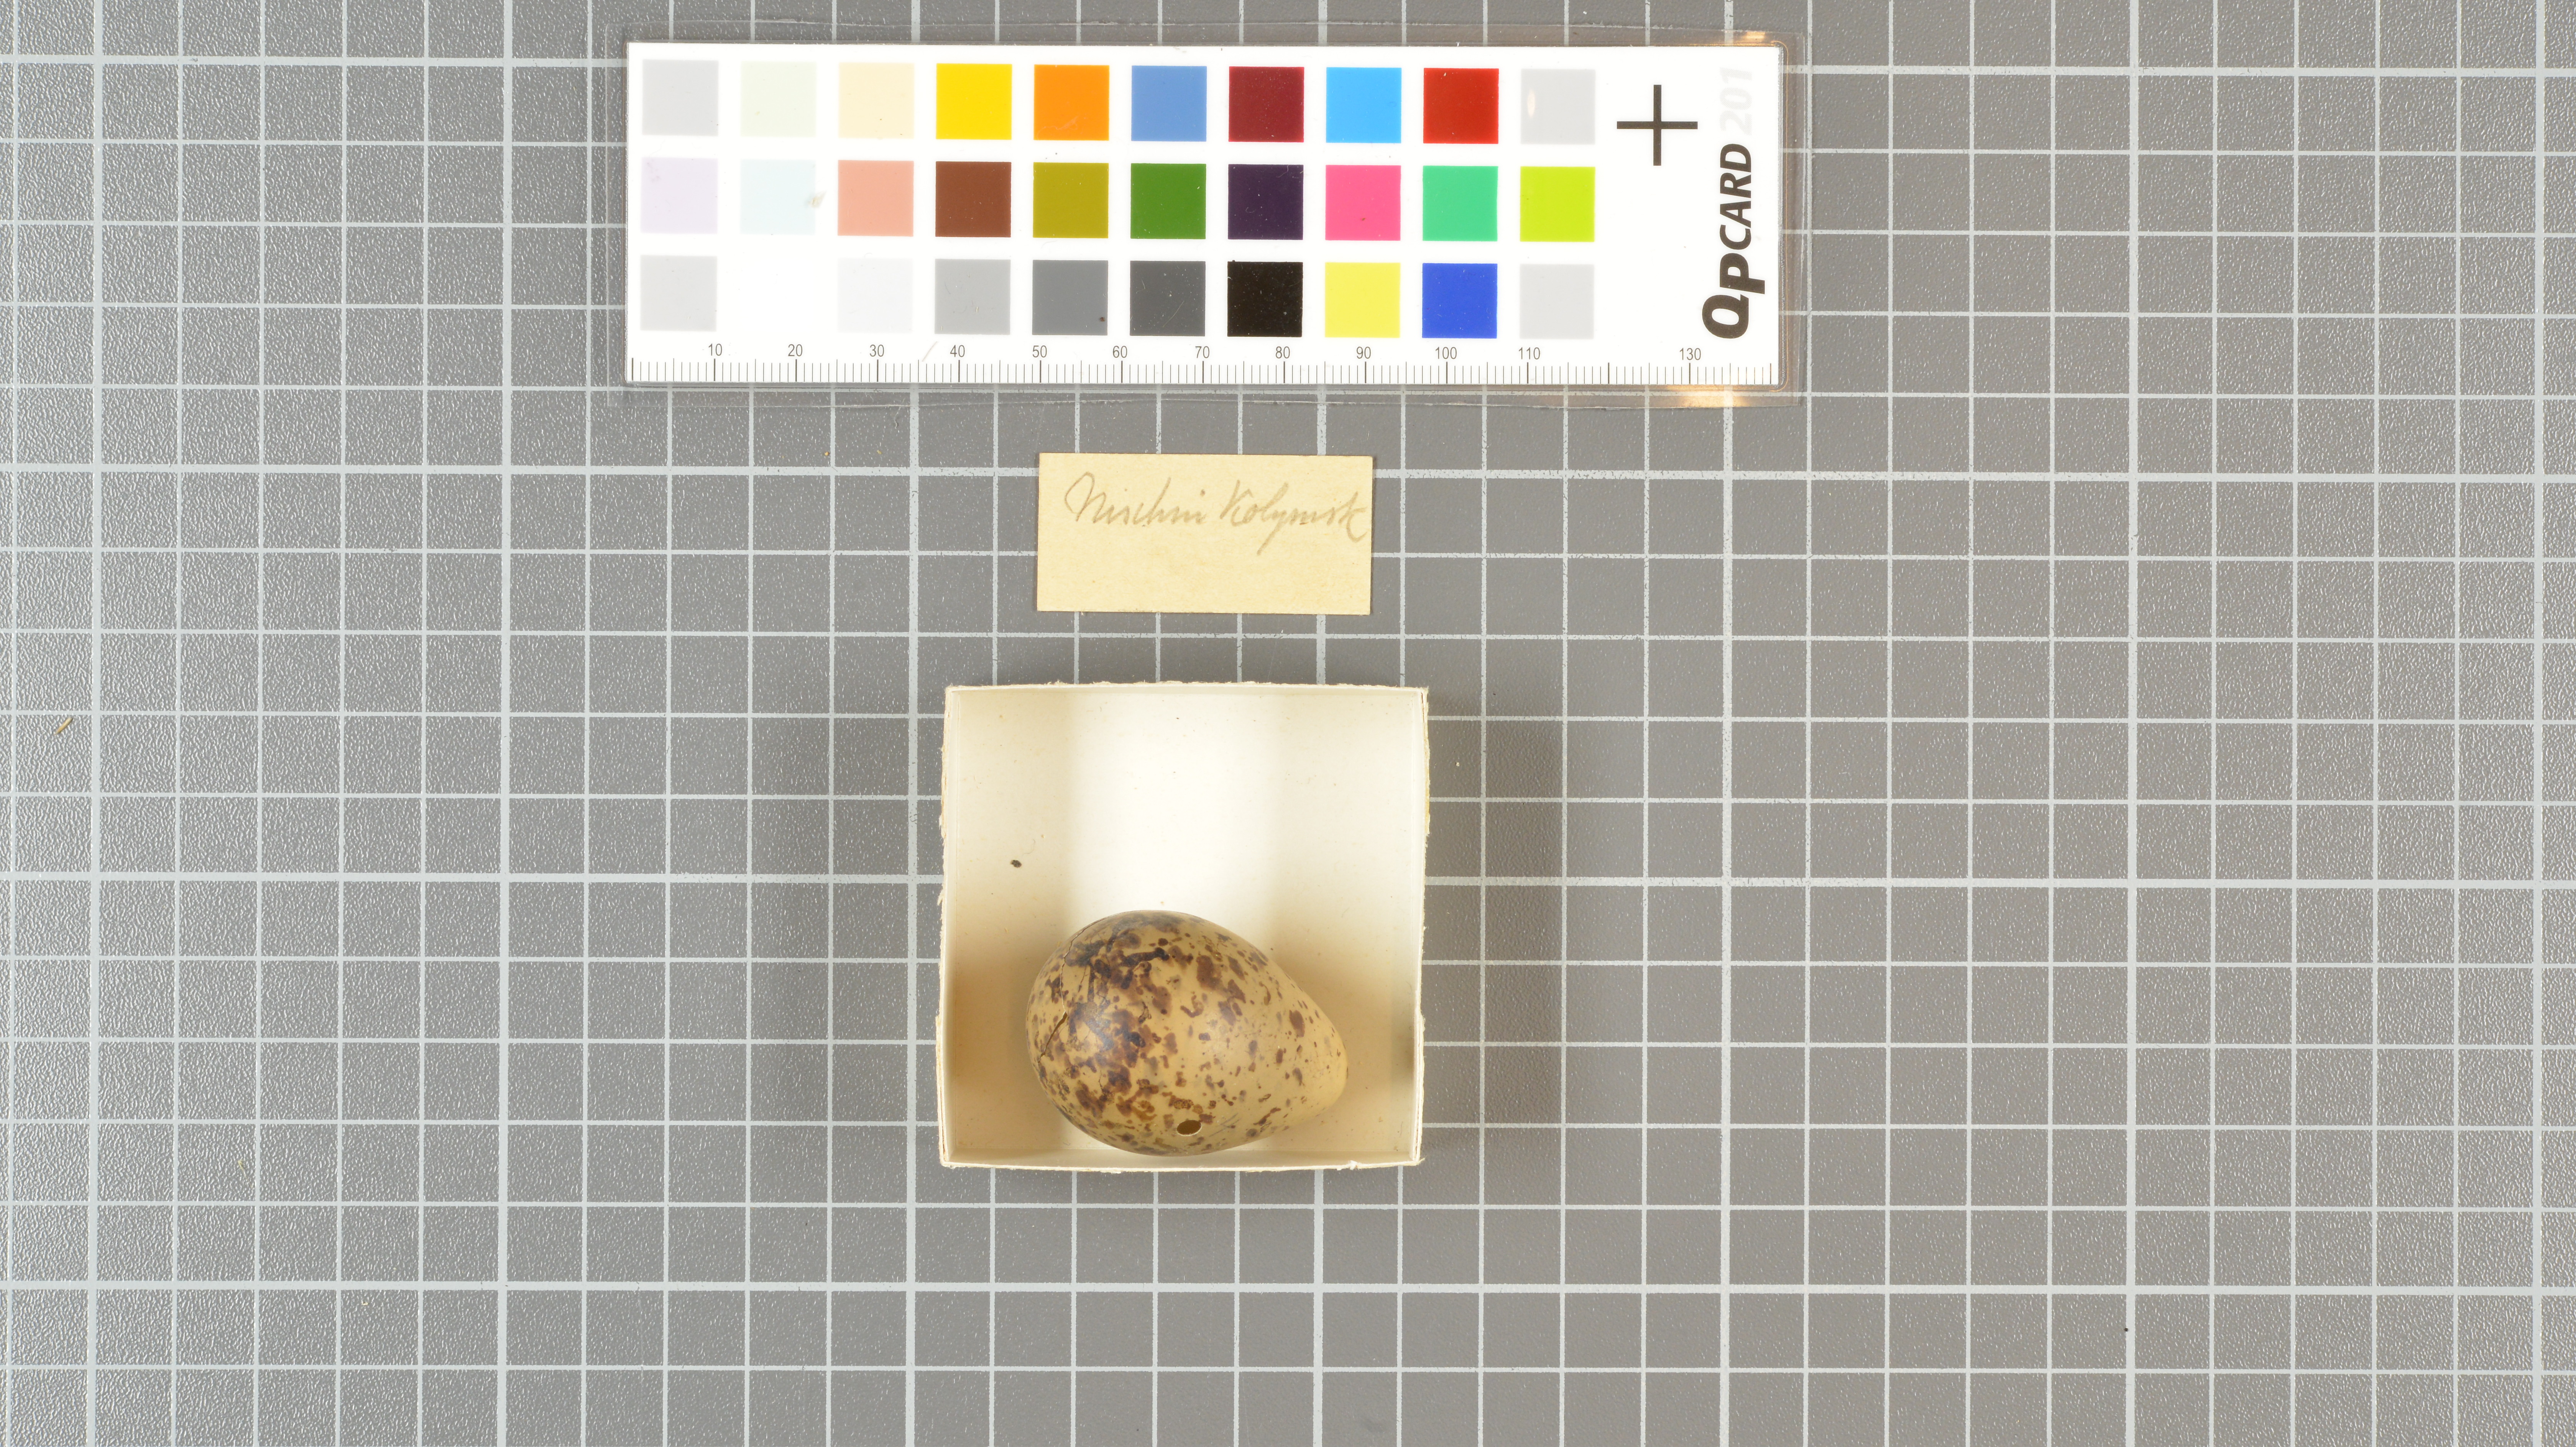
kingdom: Animalia
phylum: Chordata
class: Aves
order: Charadriiformes
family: Scolopacidae
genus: Gallinago
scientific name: Gallinago gallinago
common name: Common snipe
